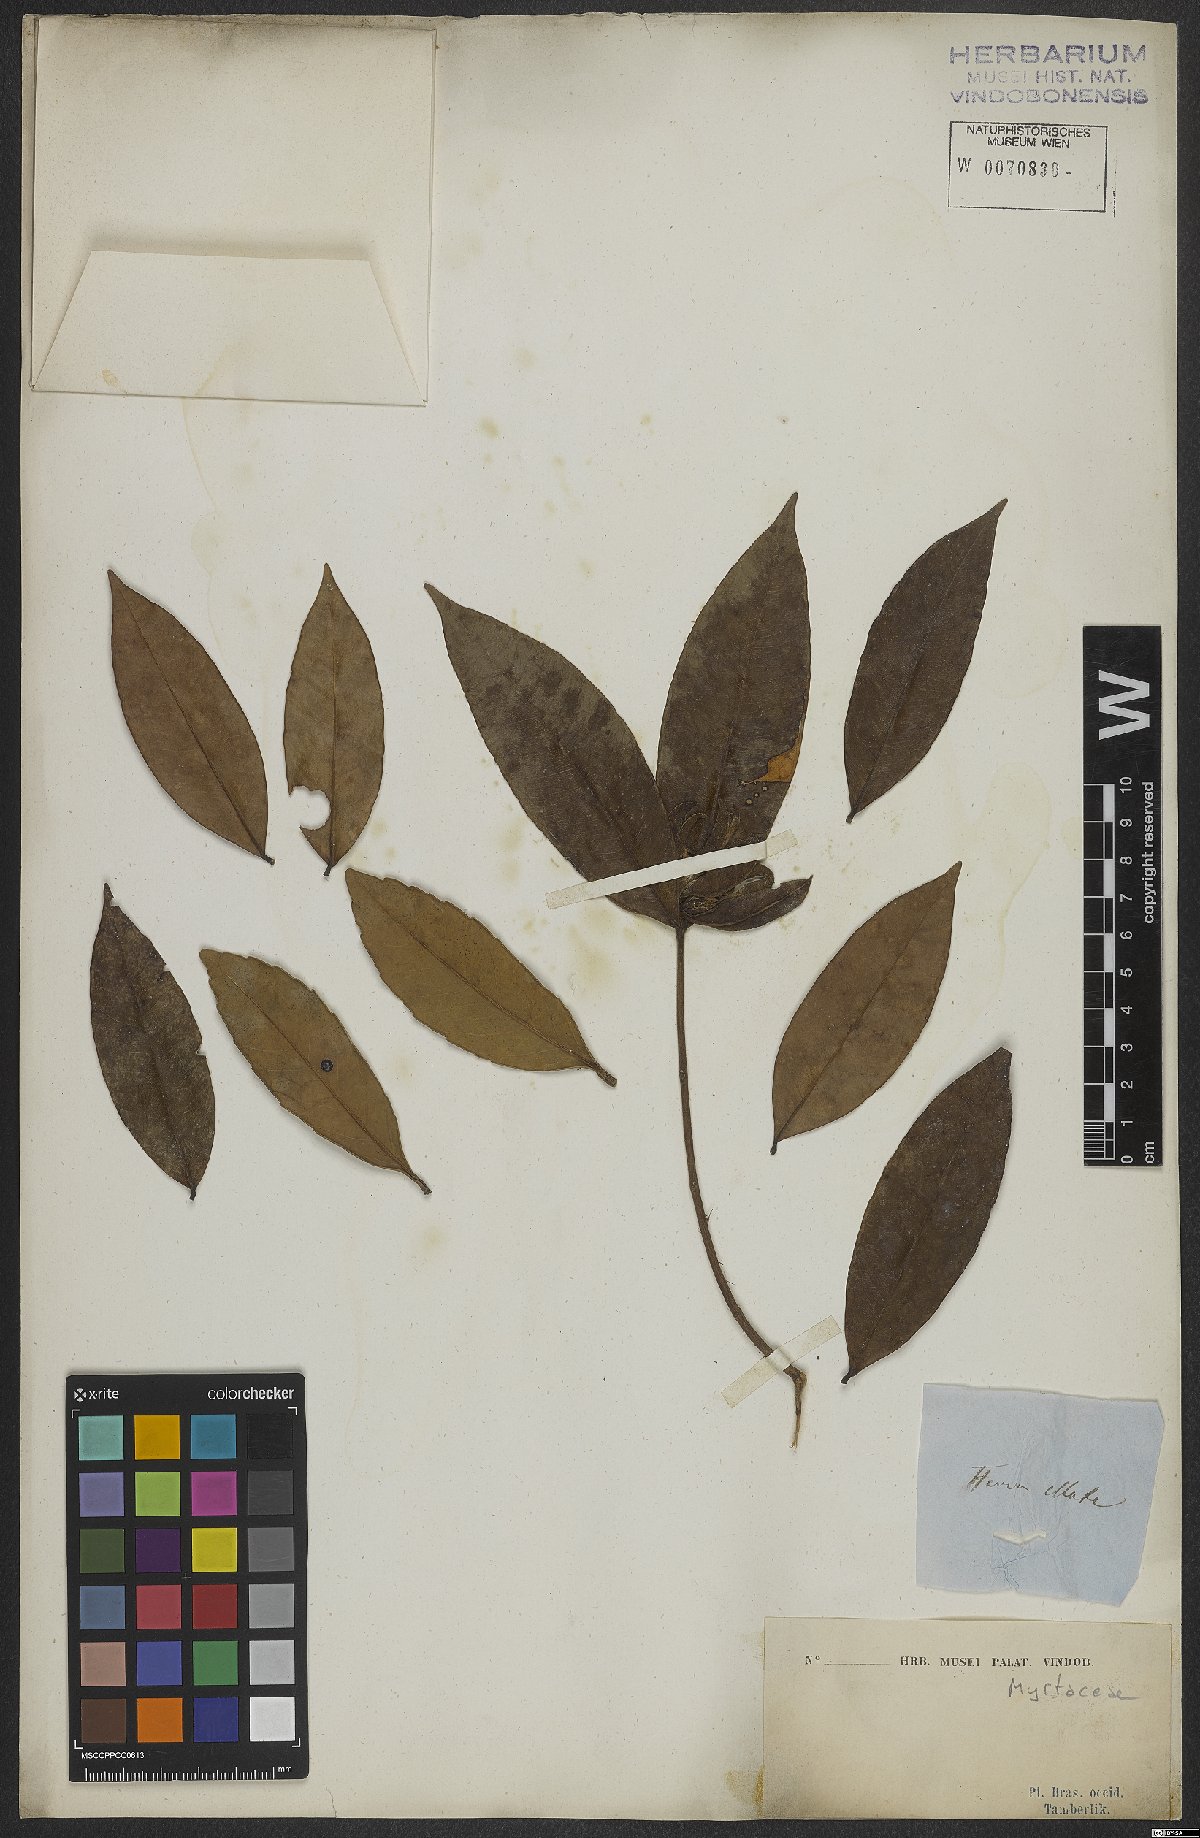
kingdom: Plantae
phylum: Tracheophyta
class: Magnoliopsida
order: Myrtales
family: Myrtaceae
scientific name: Myrtaceae
